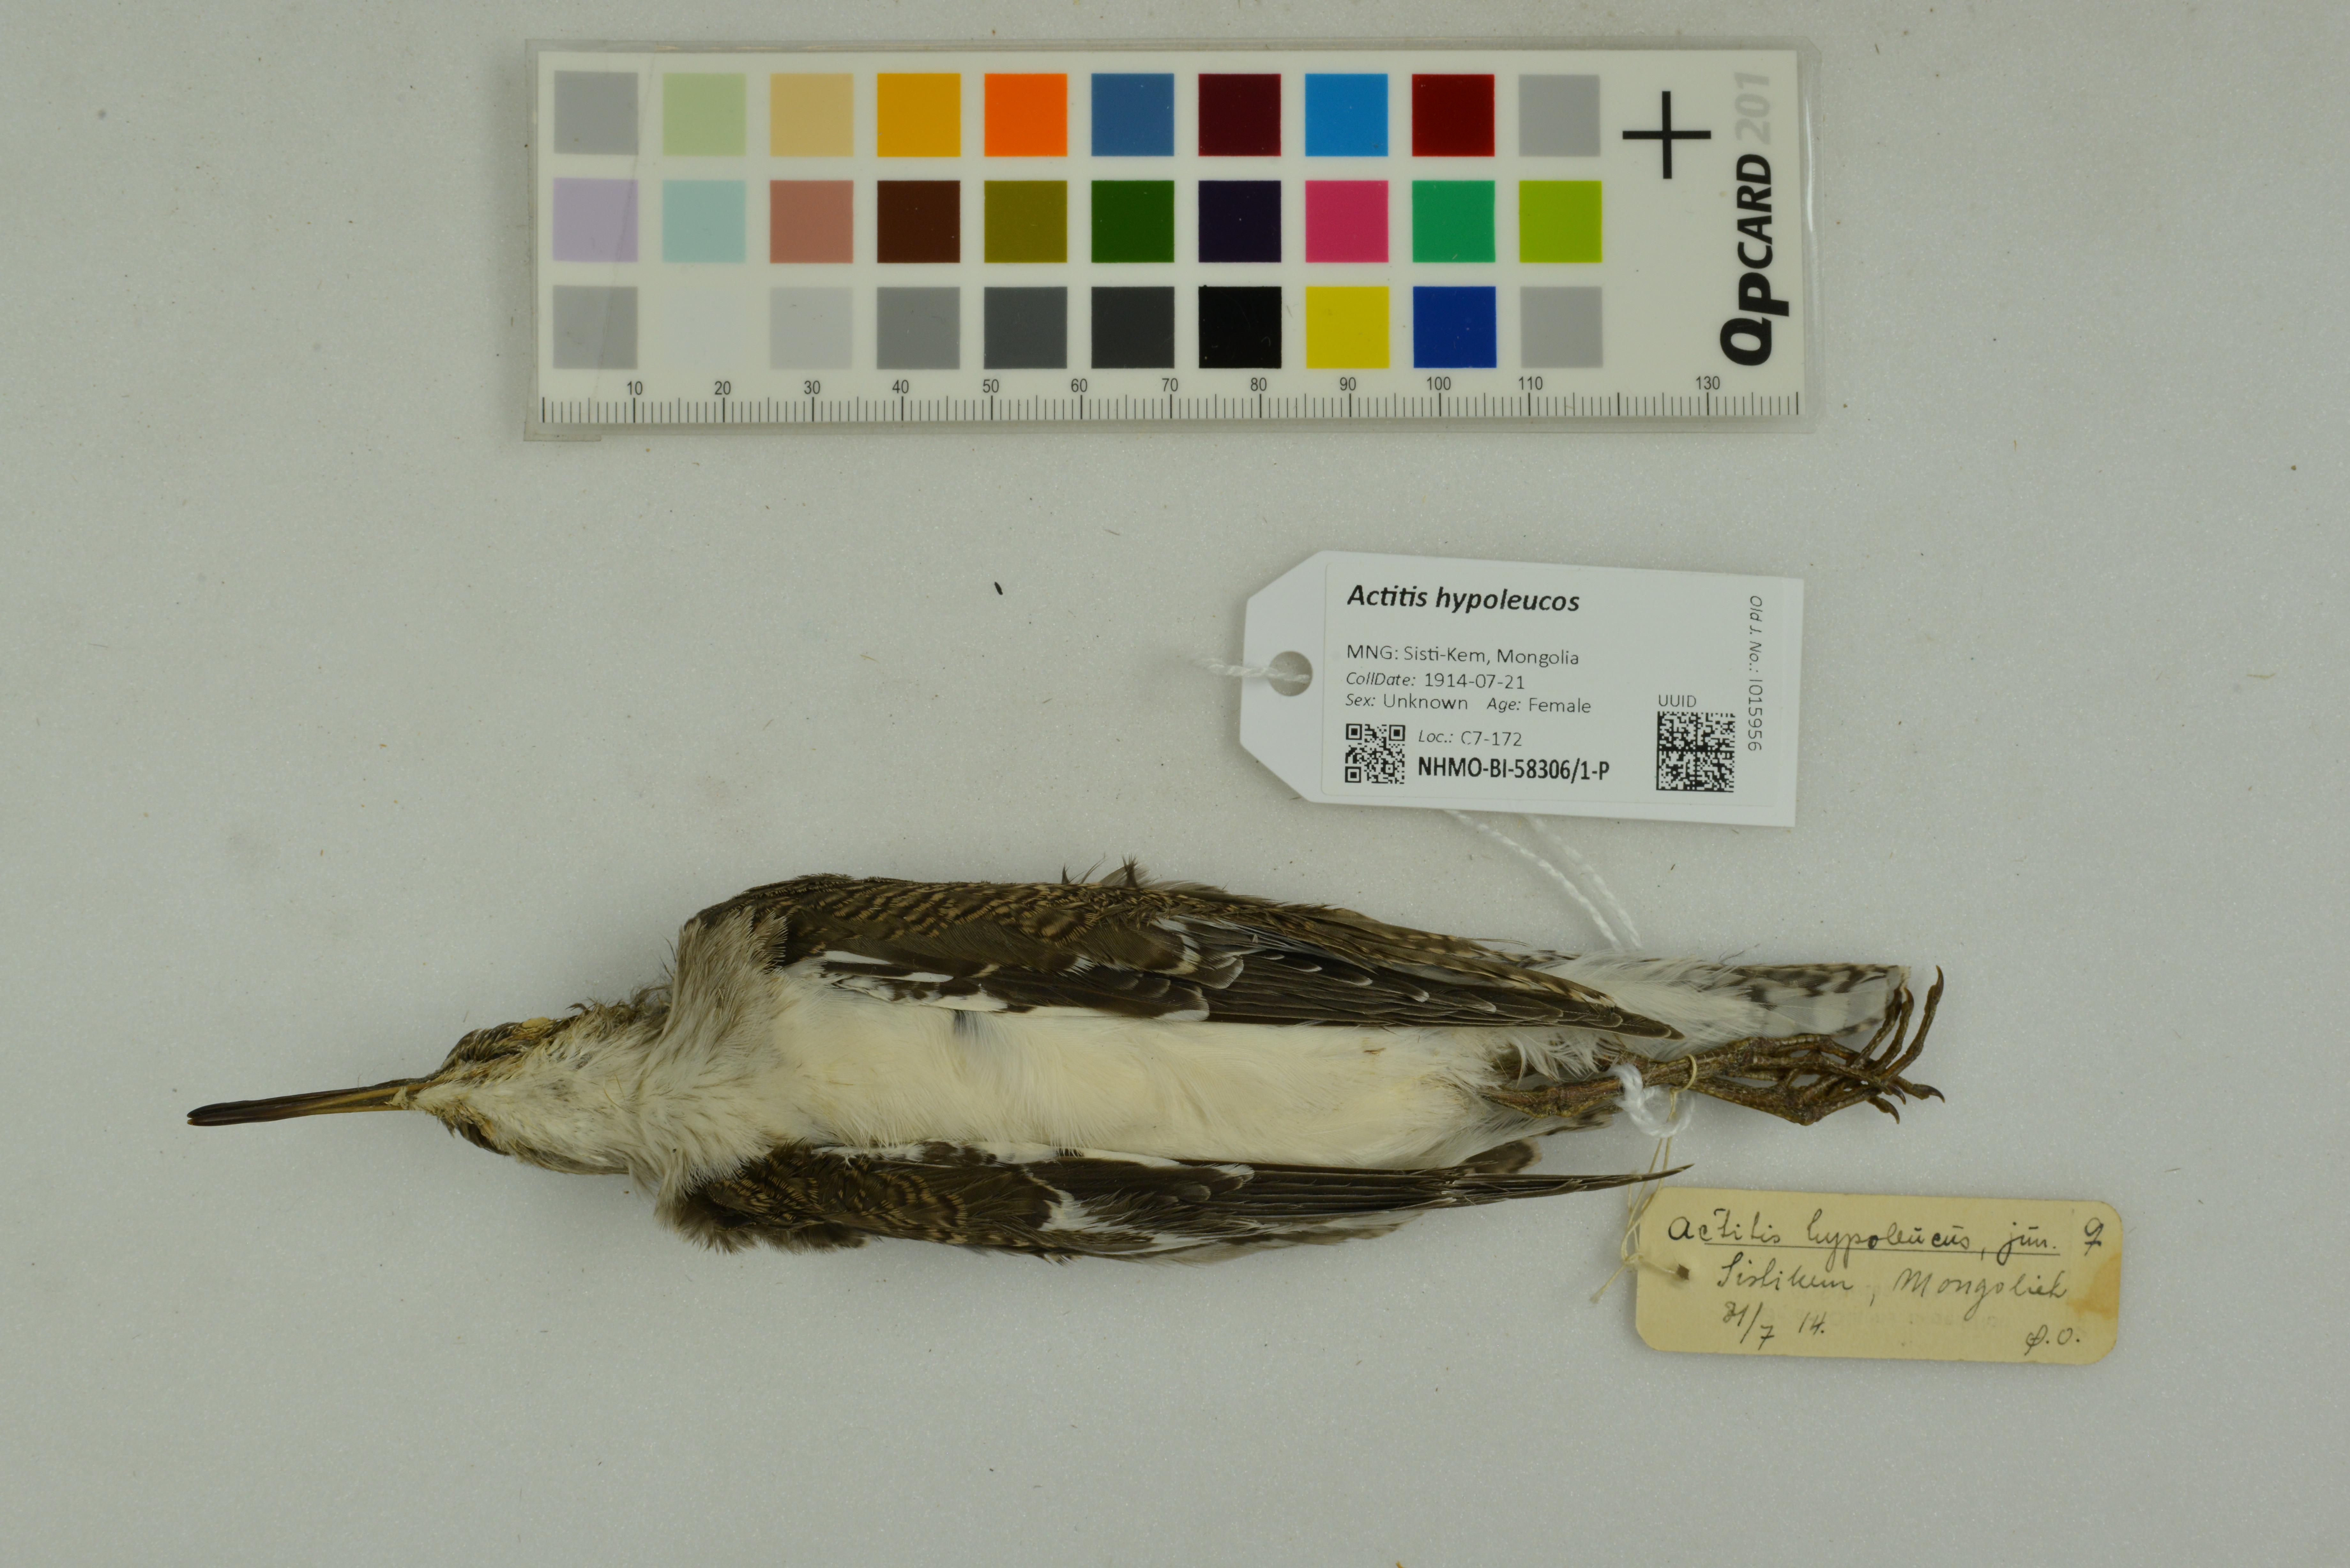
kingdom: Animalia
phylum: Chordata
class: Aves
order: Charadriiformes
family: Scolopacidae
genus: Actitis
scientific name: Actitis hypoleucos
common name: Common sandpiper
